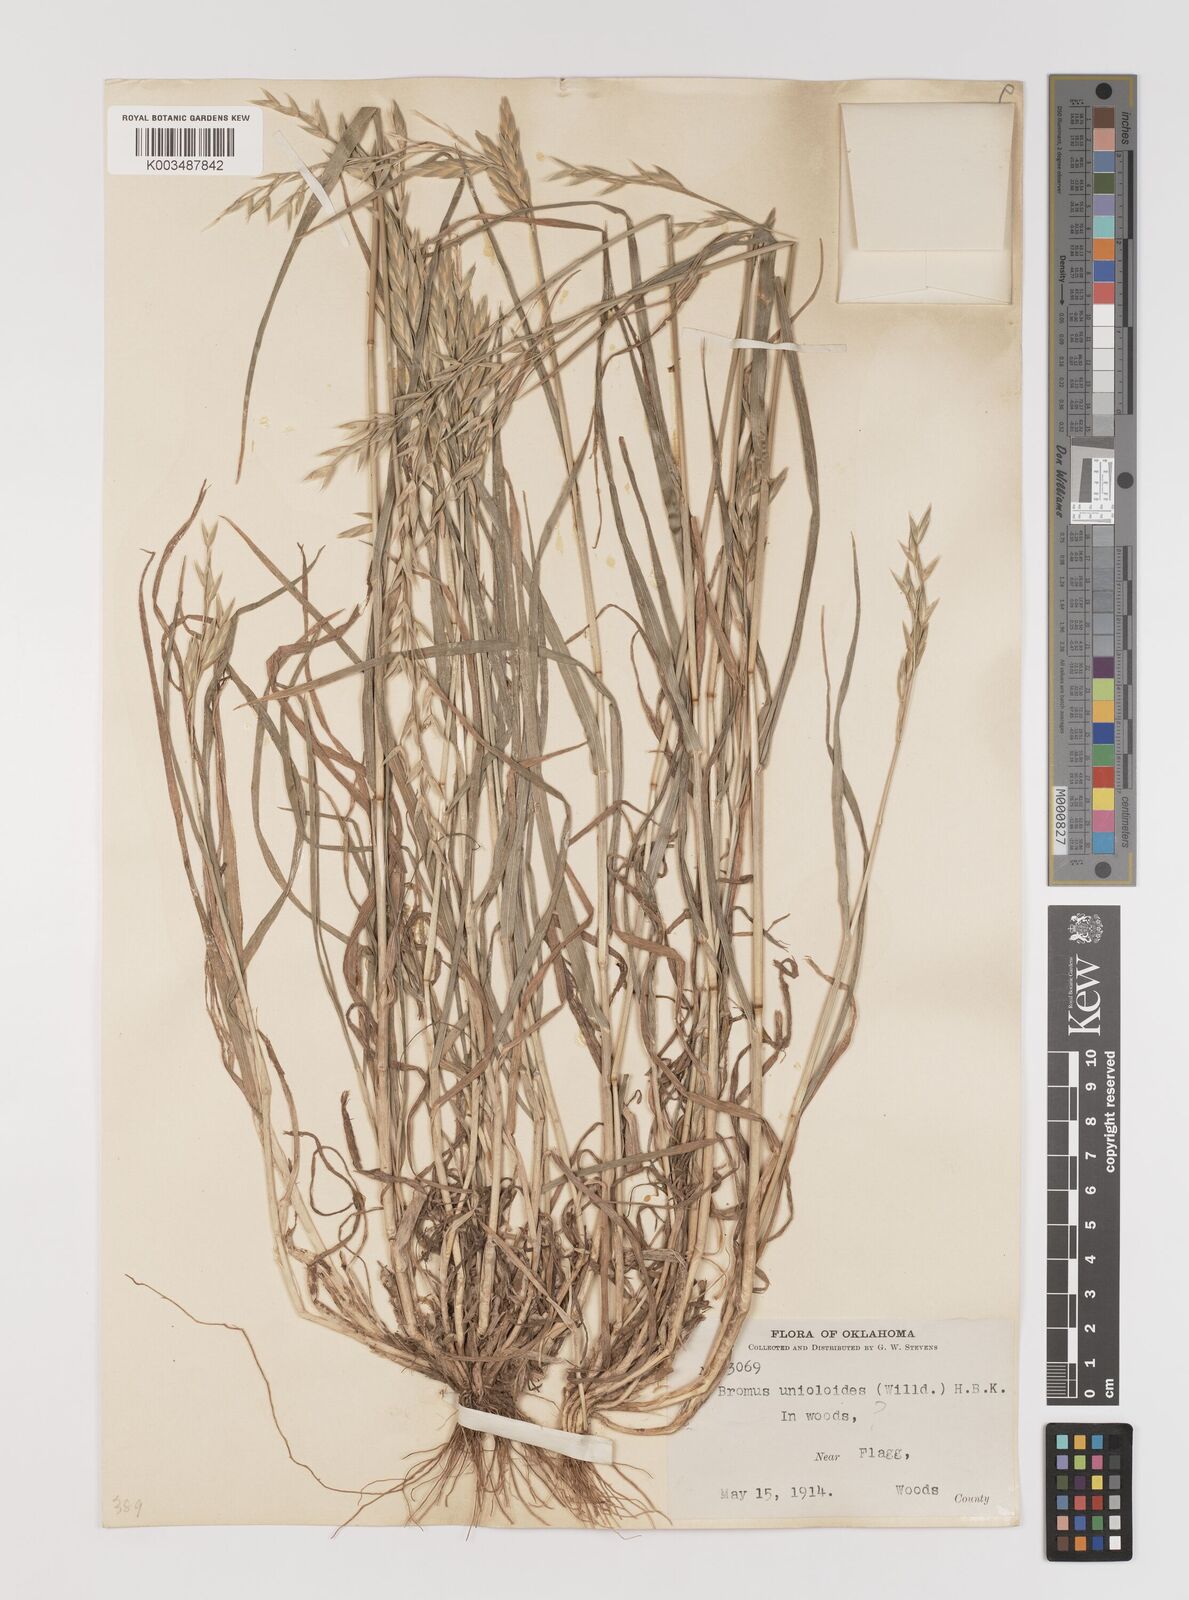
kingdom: Plantae
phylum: Tracheophyta
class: Liliopsida
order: Poales
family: Poaceae
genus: Bromus
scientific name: Bromus catharticus
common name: Rescuegrass
